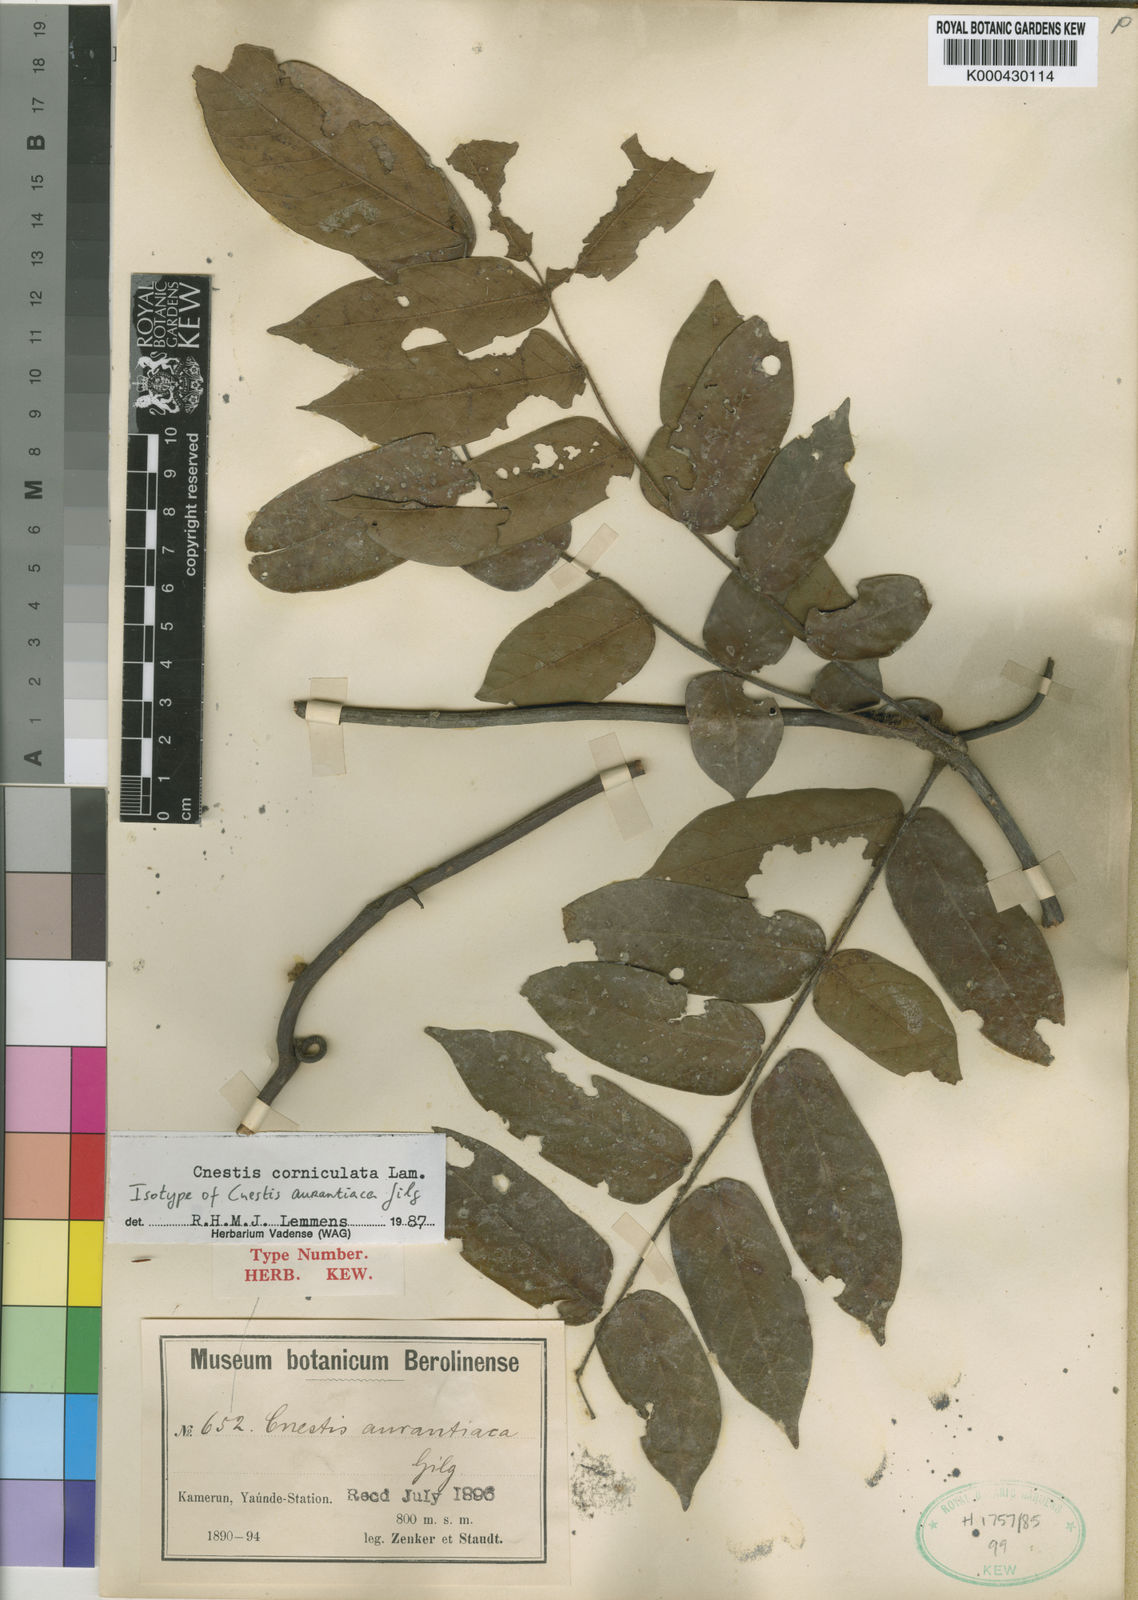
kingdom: Plantae
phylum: Tracheophyta
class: Magnoliopsida
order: Oxalidales
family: Connaraceae
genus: Cnestis
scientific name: Cnestis corniculata
